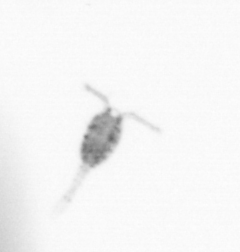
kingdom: Animalia
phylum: Arthropoda
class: Copepoda
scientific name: Copepoda
